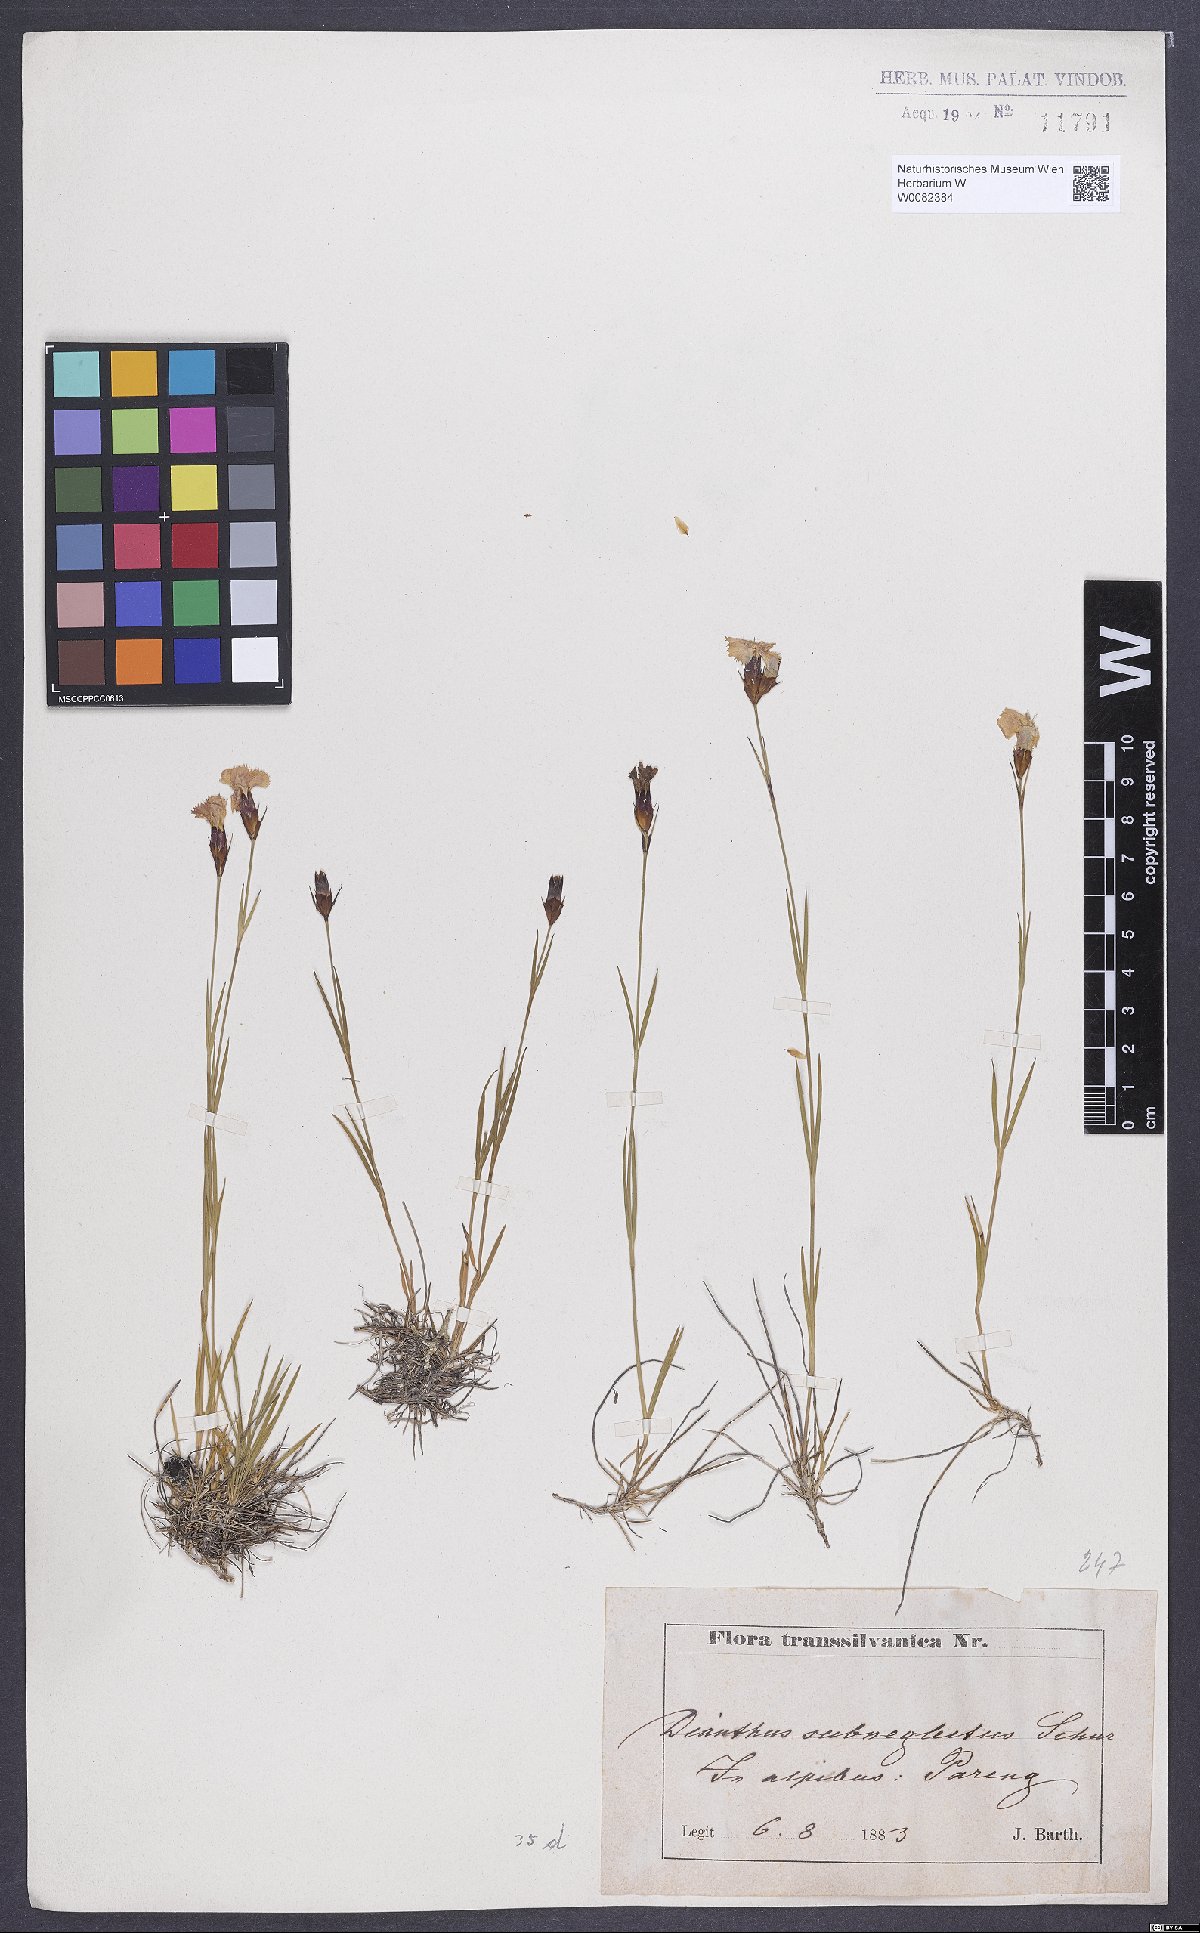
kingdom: Plantae
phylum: Tracheophyta
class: Magnoliopsida
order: Caryophyllales
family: Caryophyllaceae
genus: Dianthus
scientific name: Dianthus carthusianorum
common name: Carthusian pink
